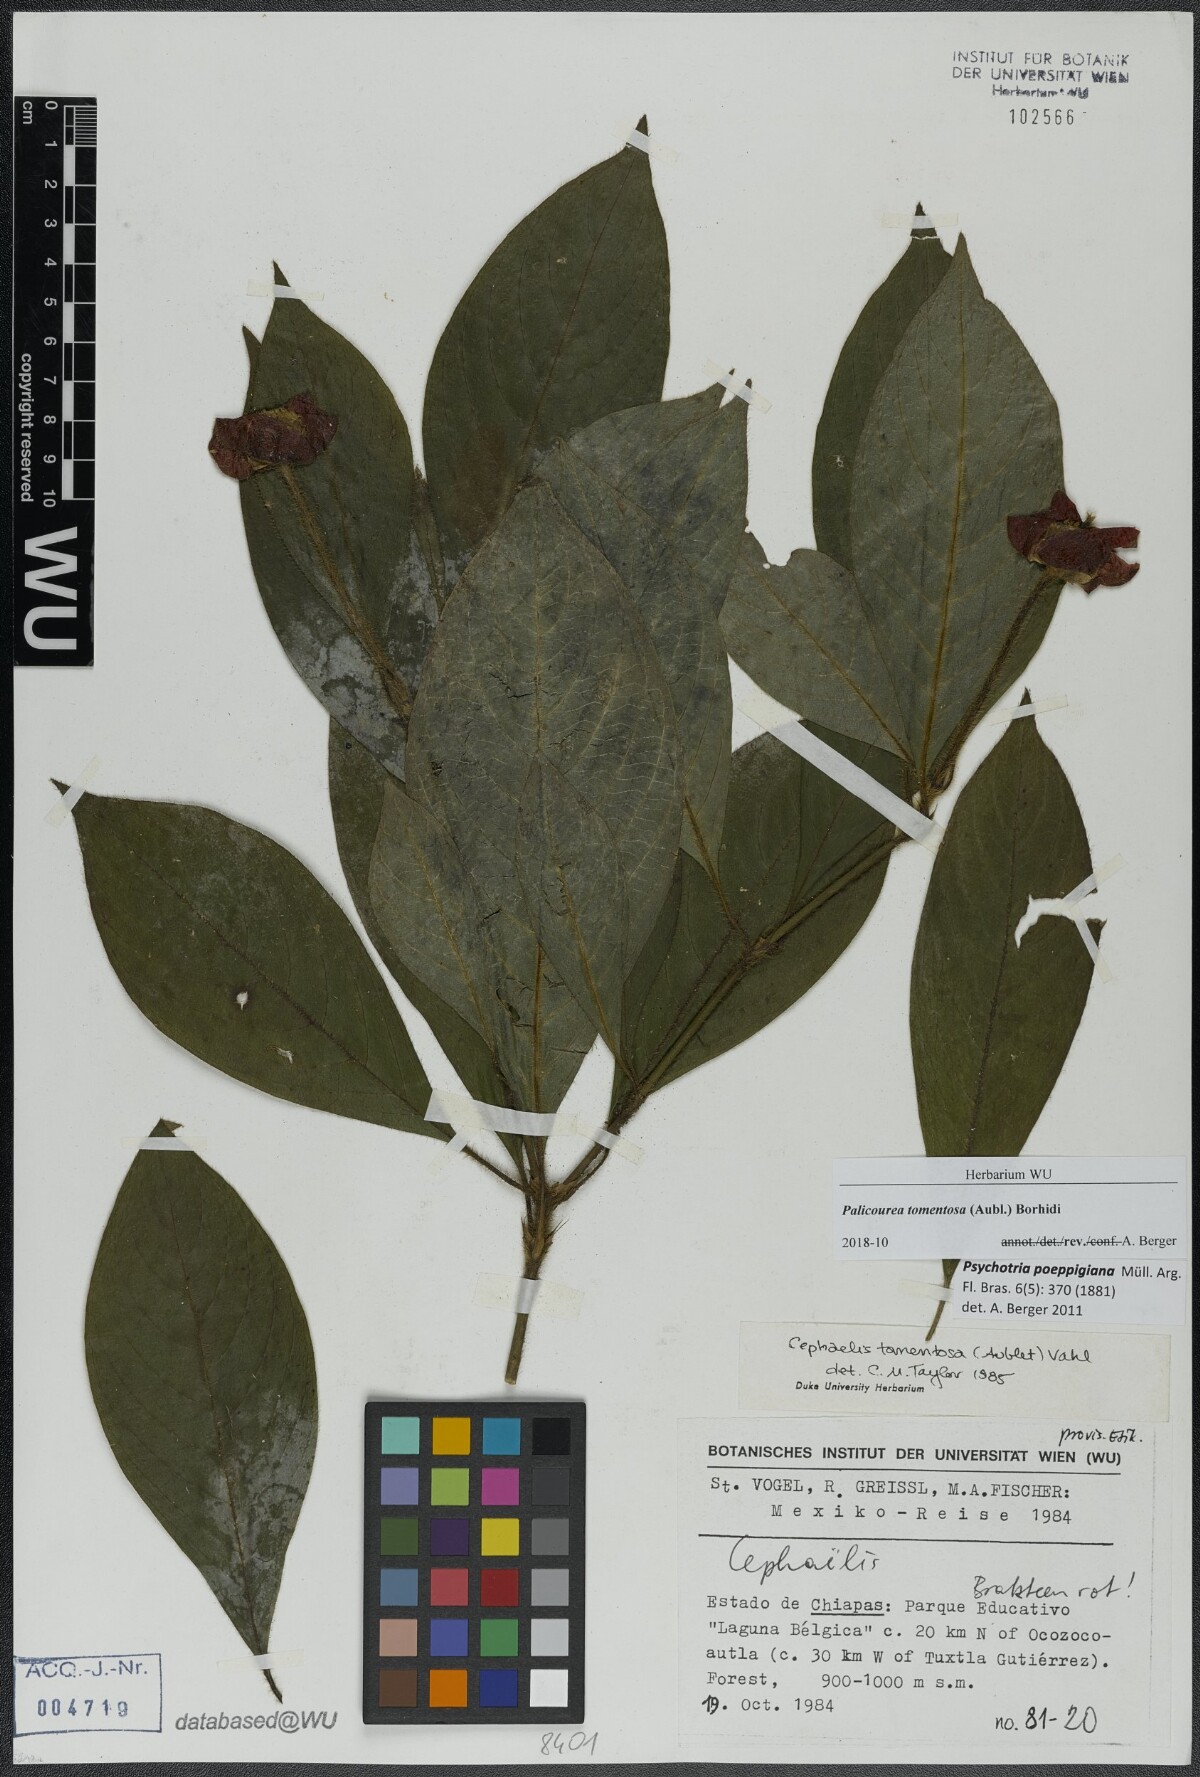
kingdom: Plantae
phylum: Tracheophyta
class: Magnoliopsida
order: Gentianales
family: Rubiaceae
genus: Palicourea
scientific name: Palicourea tomentosa
